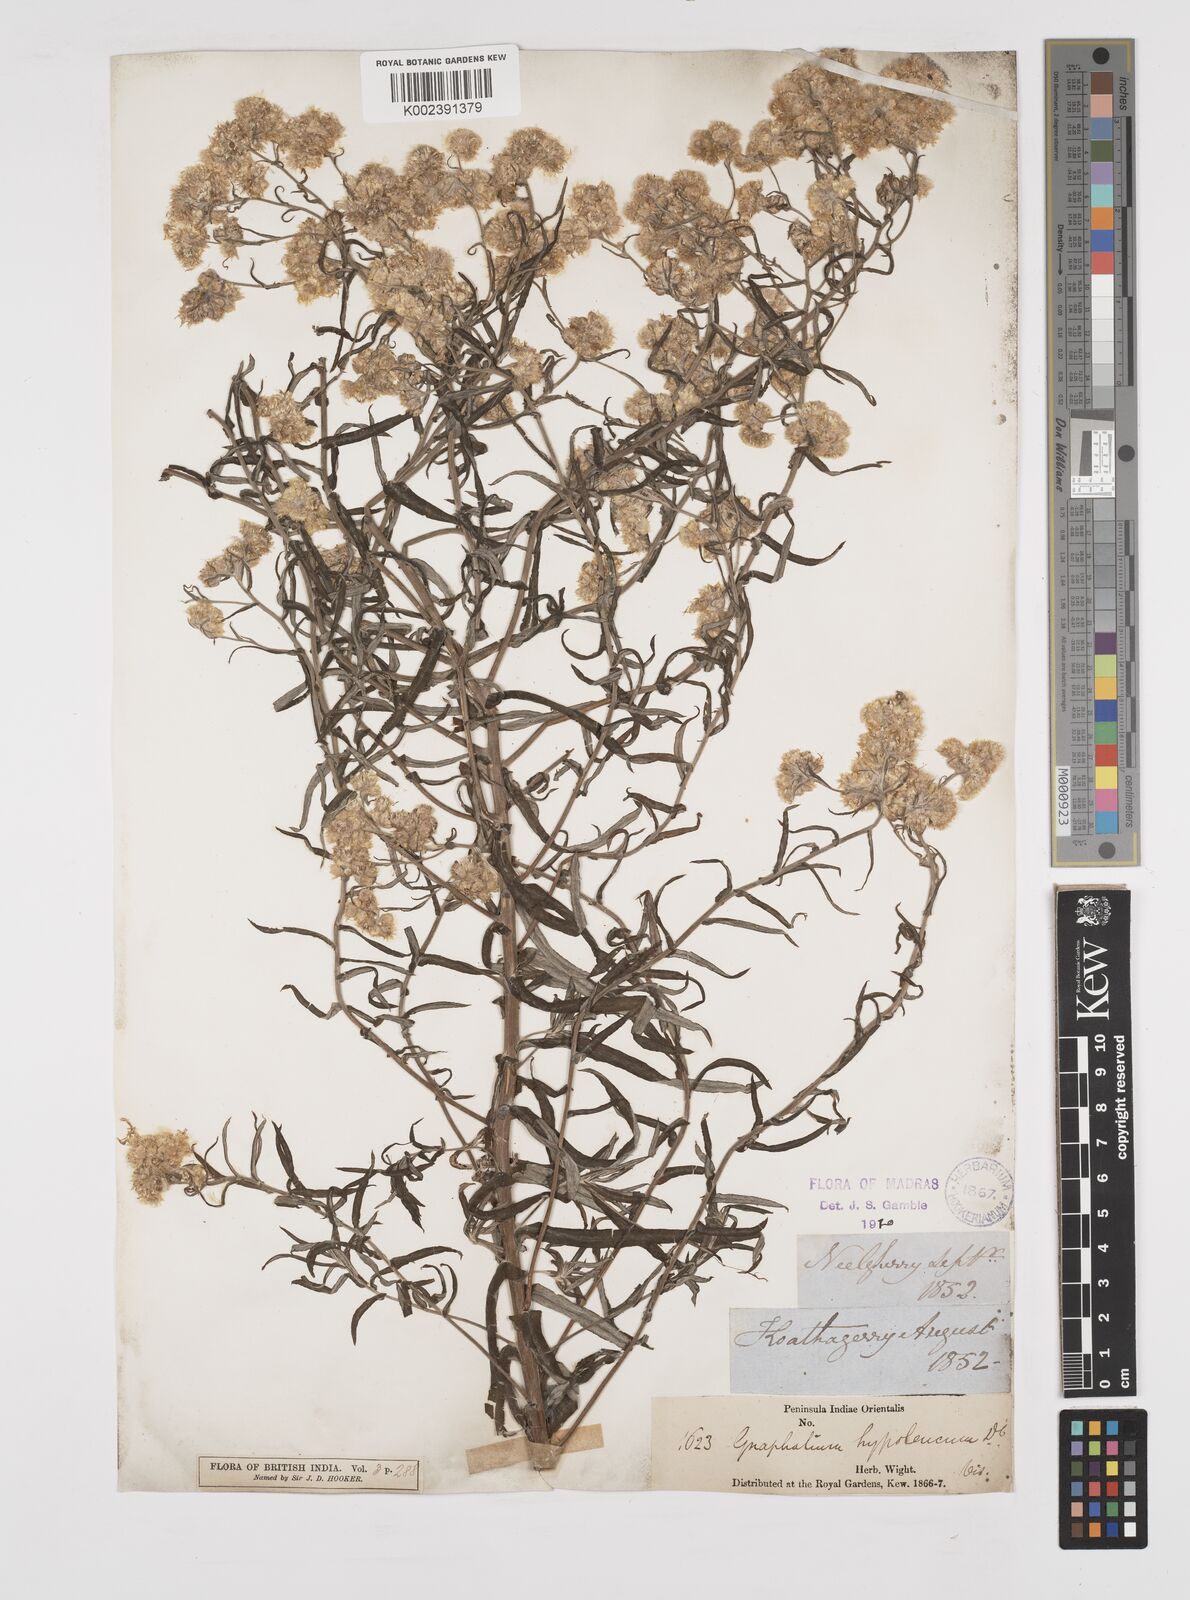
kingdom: Plantae
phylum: Tracheophyta
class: Magnoliopsida
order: Asterales
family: Asteraceae
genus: Pseudognaphalium
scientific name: Pseudognaphalium hypoleucum
